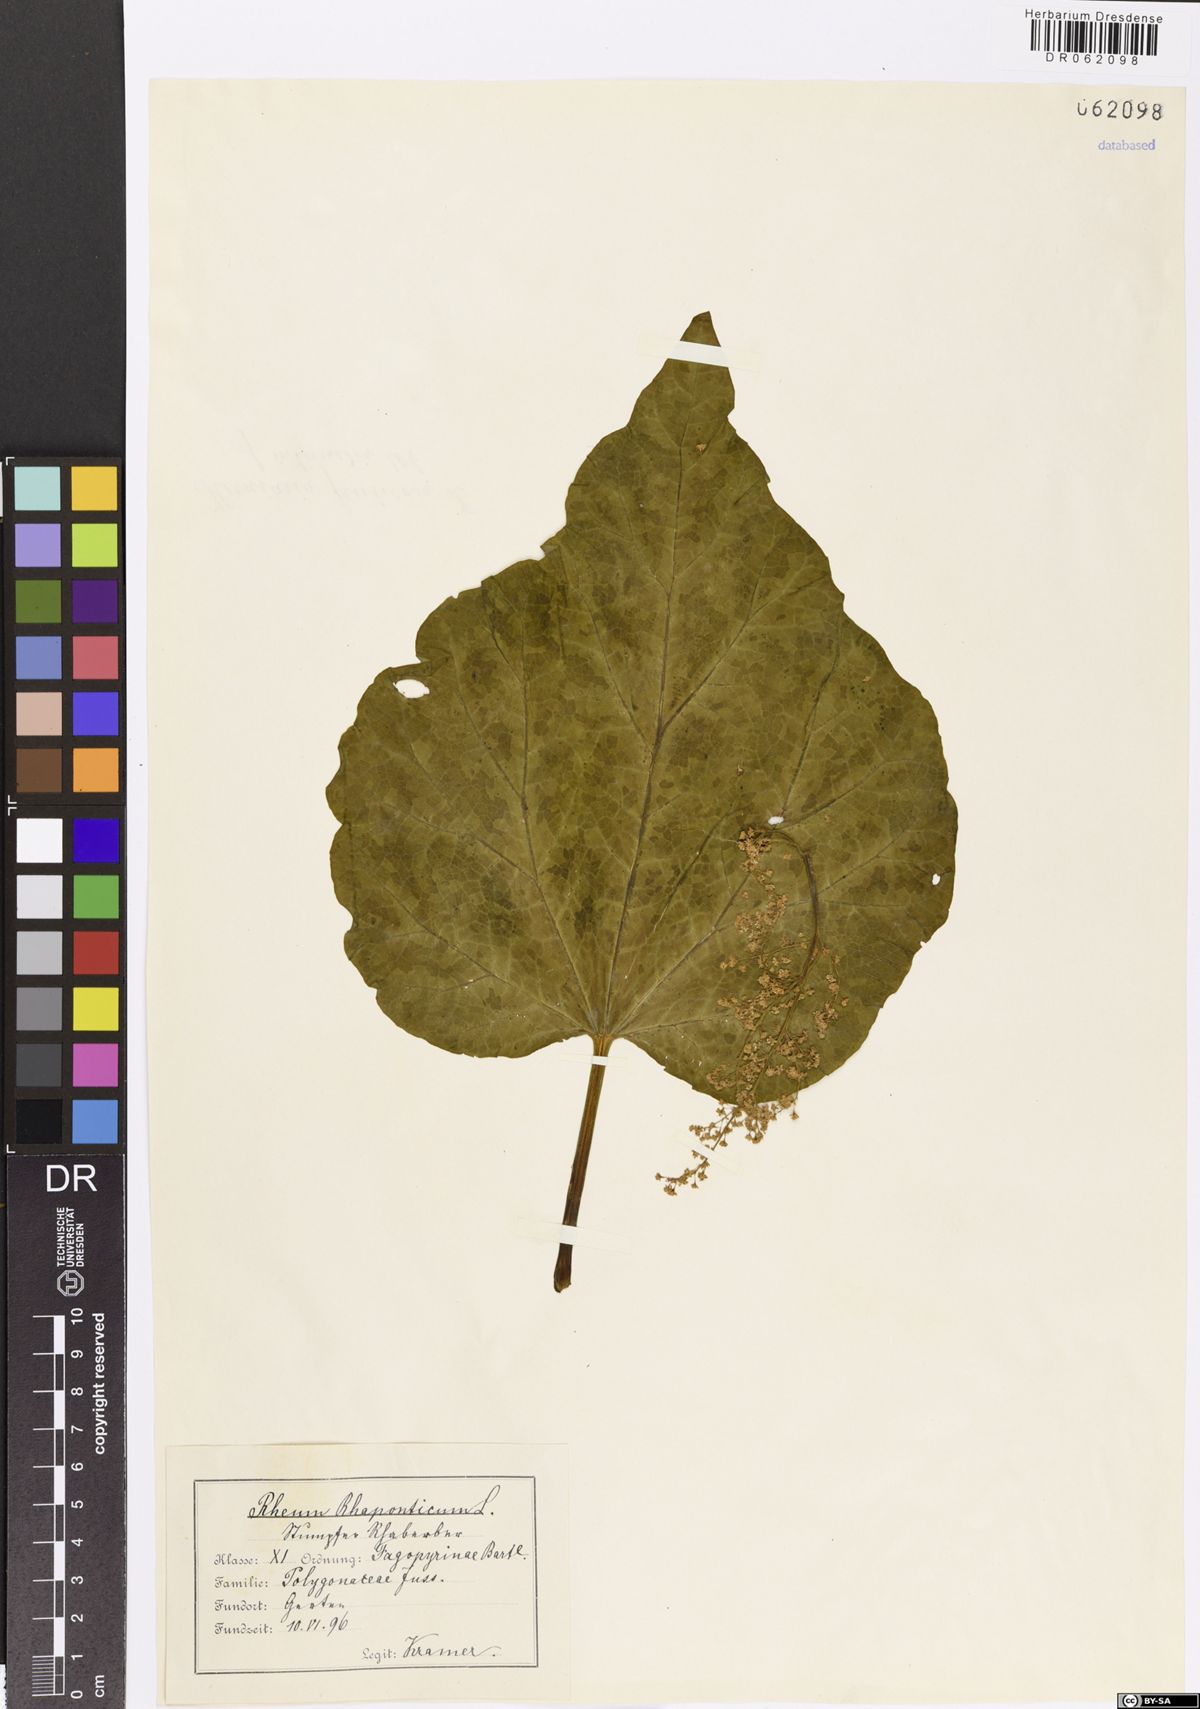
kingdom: Plantae
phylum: Tracheophyta
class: Magnoliopsida
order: Caryophyllales
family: Polygonaceae
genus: Rheum
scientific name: Rheum rhaponticum
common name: Rhubarb
